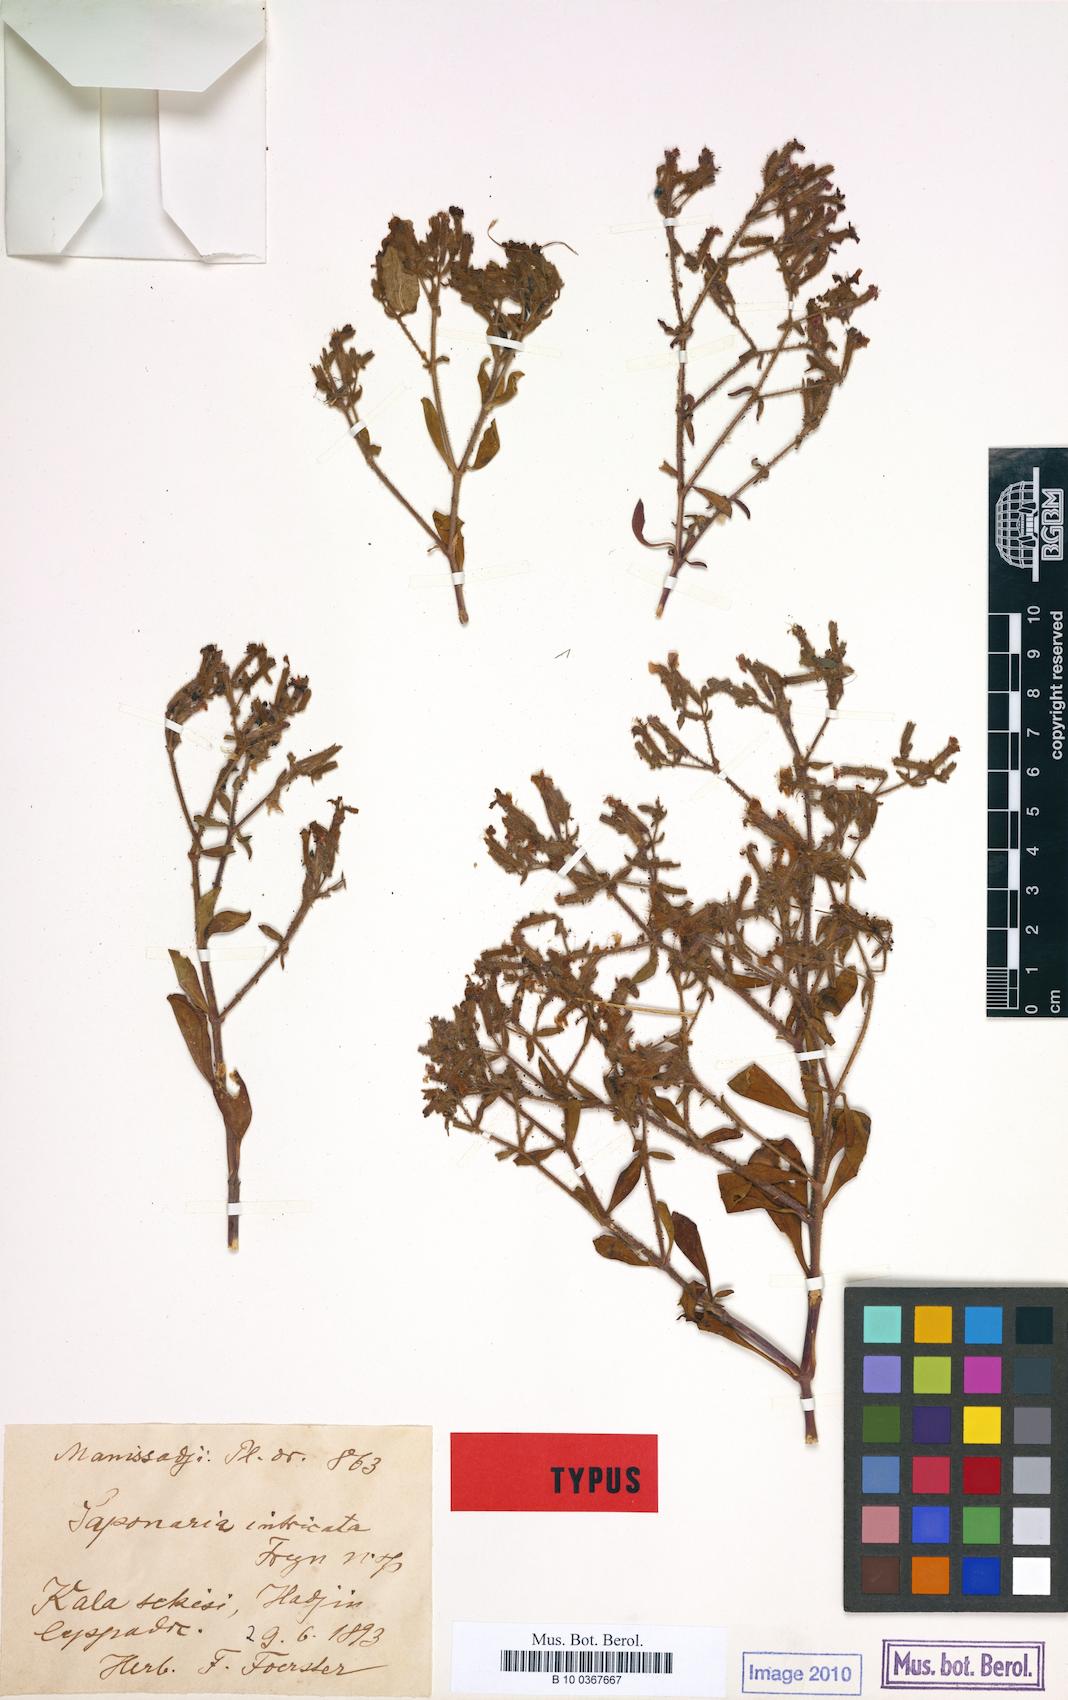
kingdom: Plantae
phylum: Tracheophyta
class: Magnoliopsida
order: Caryophyllales
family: Caryophyllaceae
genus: Saponaria
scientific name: Saponaria kotschyi
